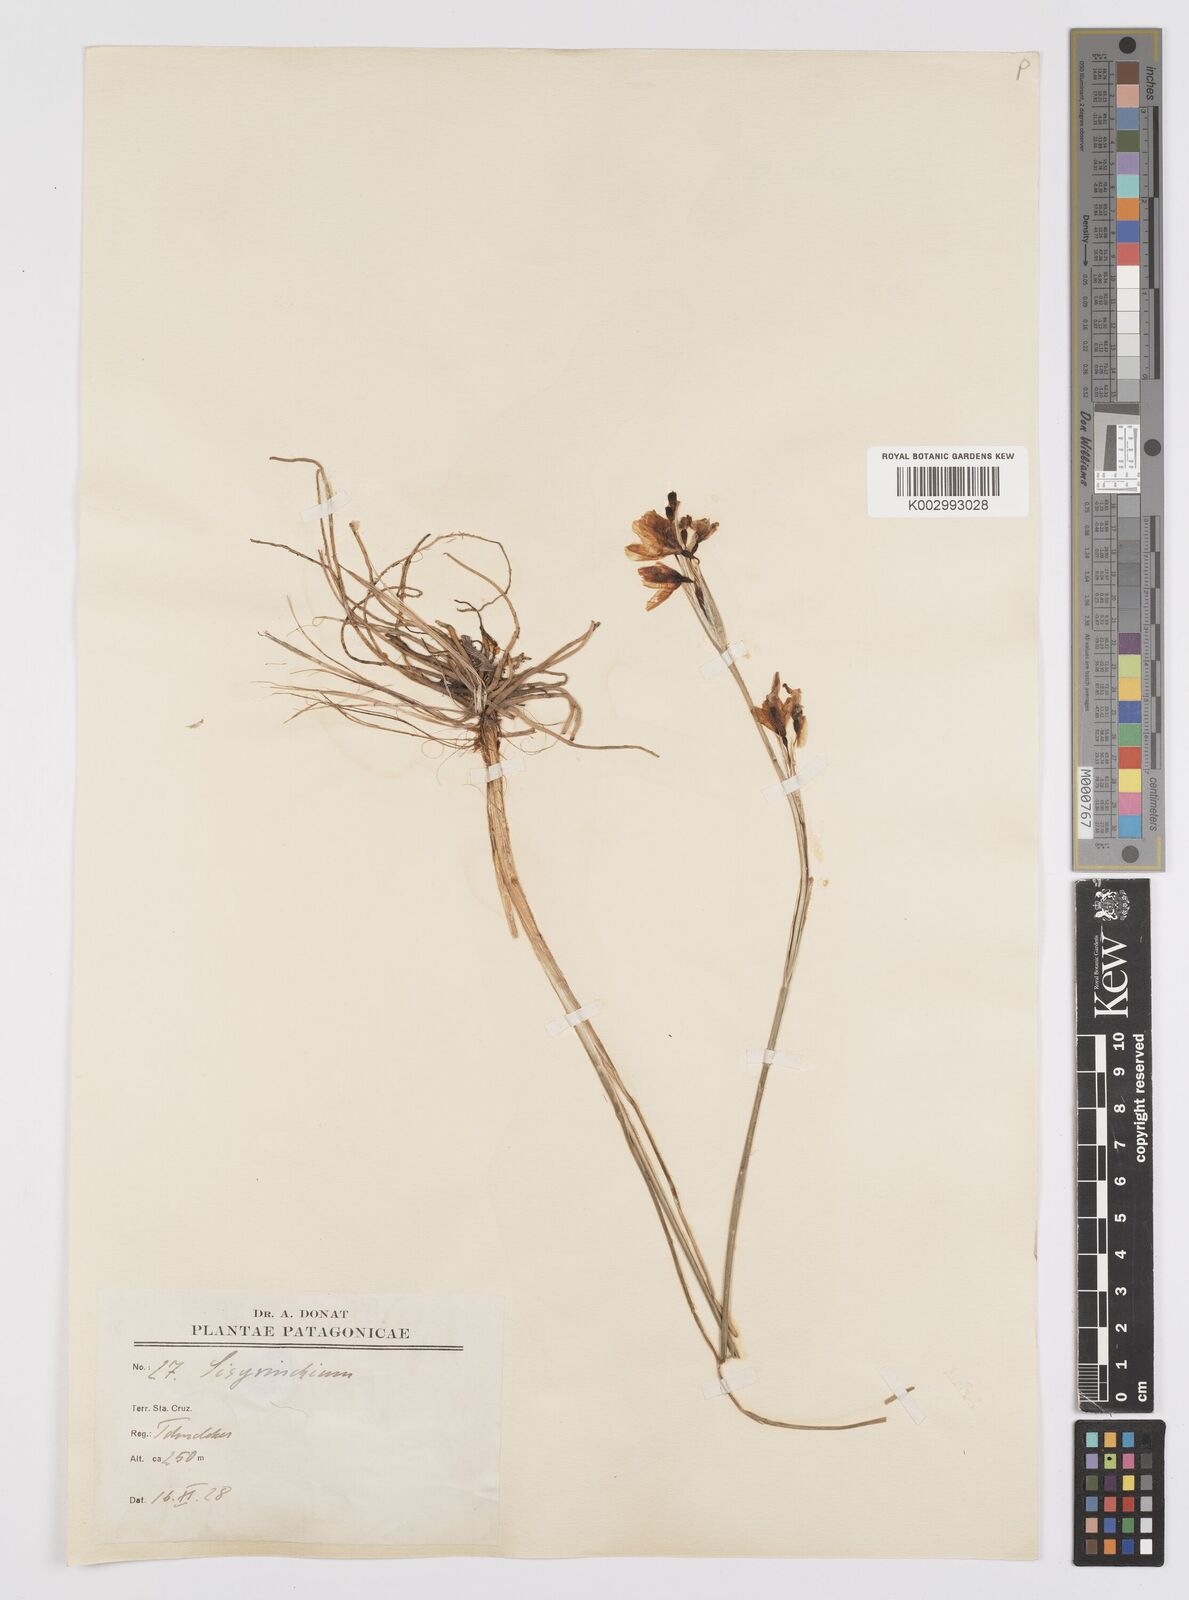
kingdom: Plantae
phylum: Tracheophyta
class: Liliopsida
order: Asparagales
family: Iridaceae
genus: Sisyrinchium
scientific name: Sisyrinchium
